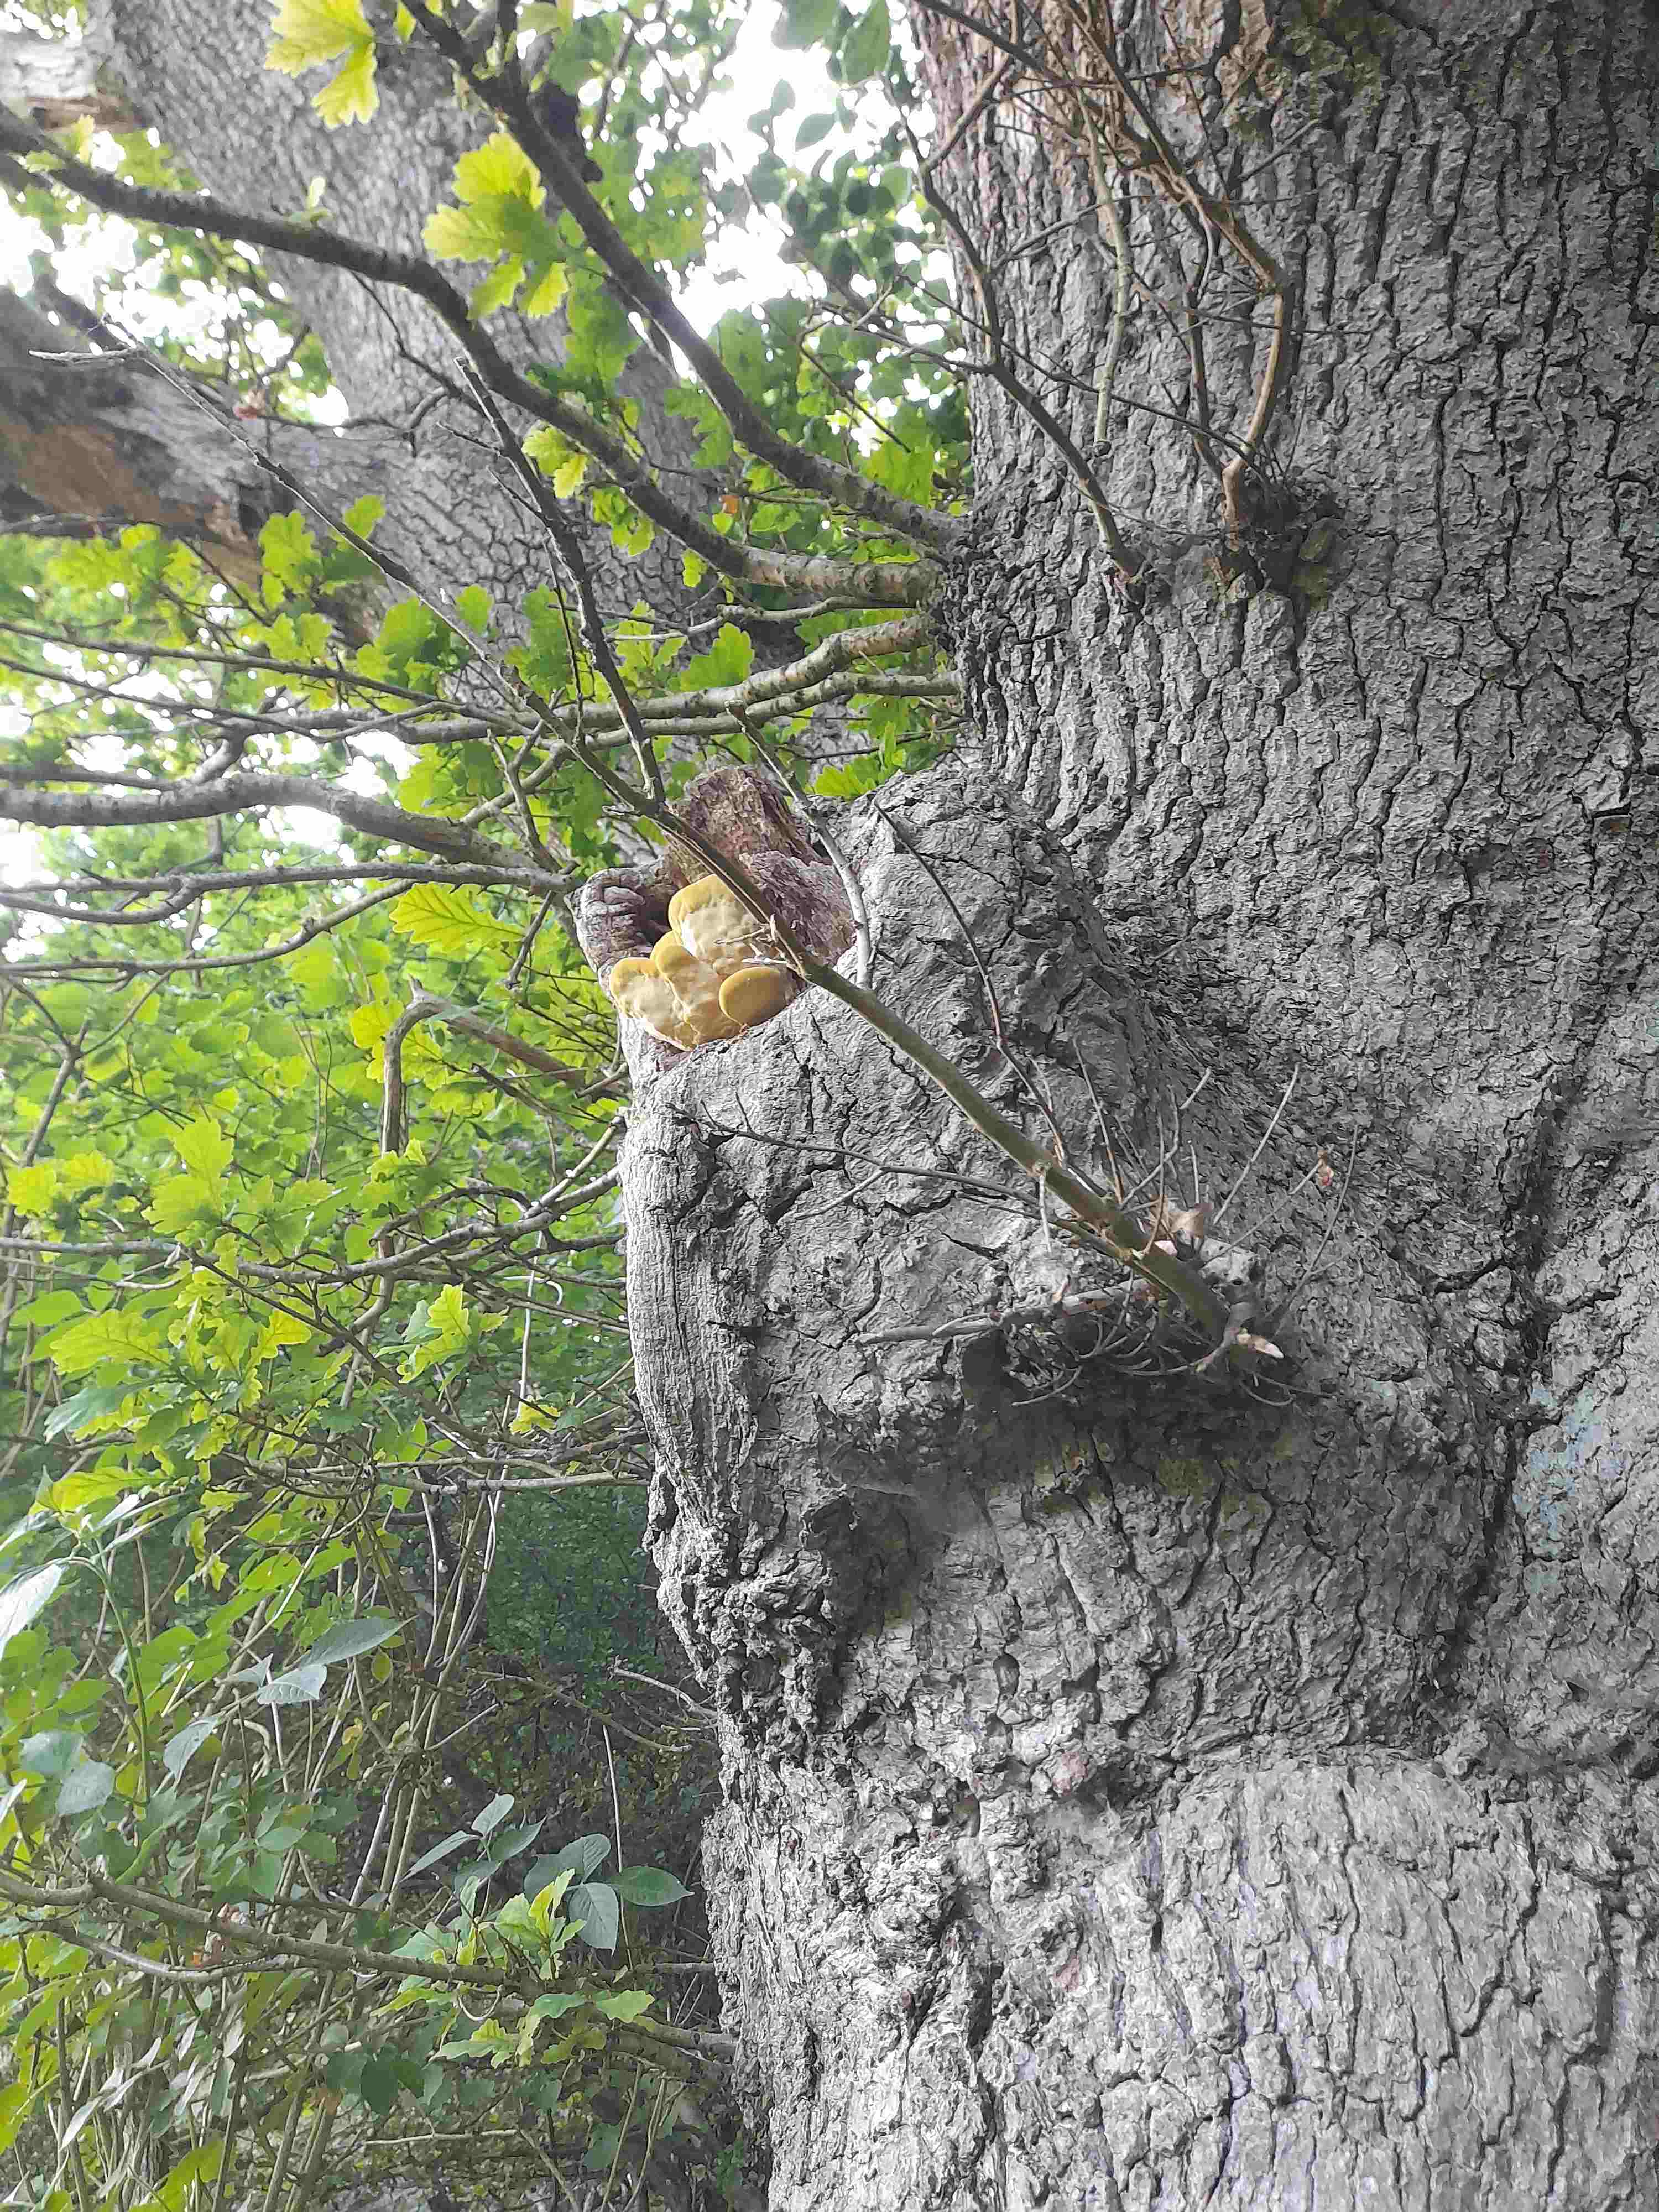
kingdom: Fungi
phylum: Basidiomycota
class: Agaricomycetes
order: Polyporales
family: Laetiporaceae
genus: Laetiporus
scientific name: Laetiporus sulphureus
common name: svovlporesvamp
